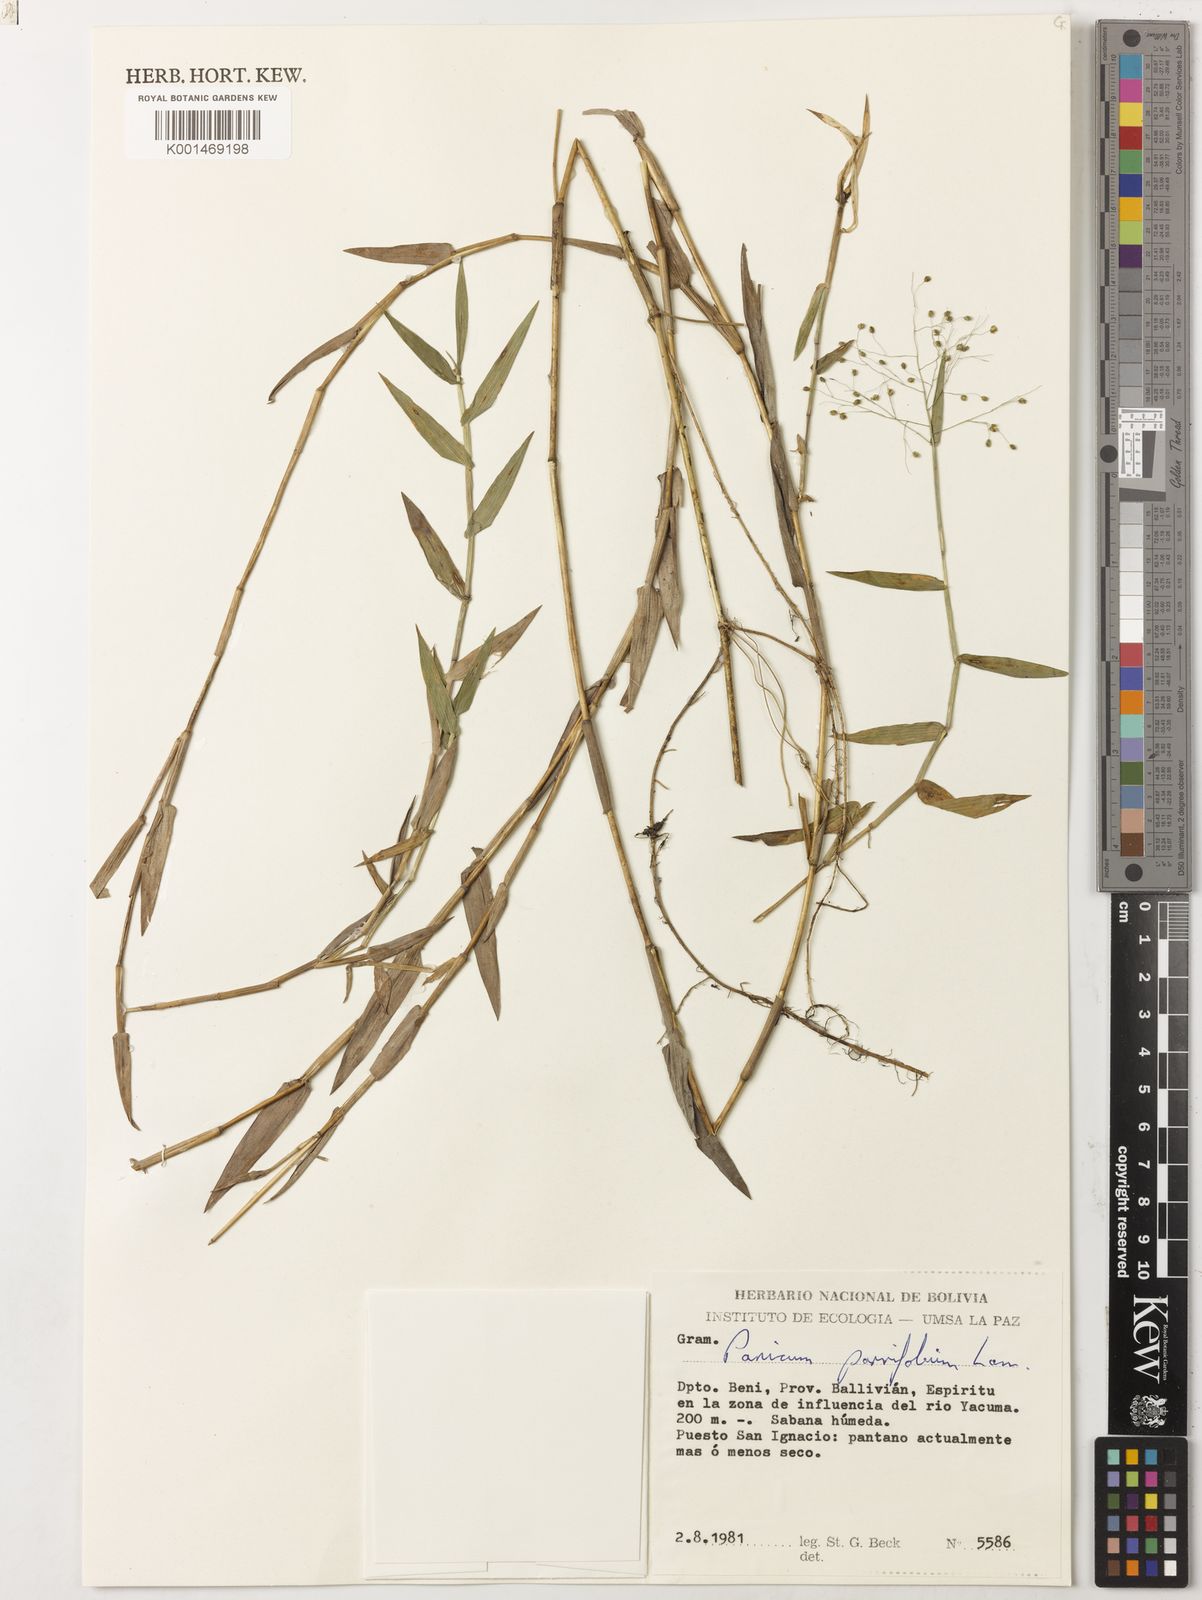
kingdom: Plantae
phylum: Tracheophyta
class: Liliopsida
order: Poales
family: Poaceae
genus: Trichanthecium
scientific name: Trichanthecium schwackeanum
